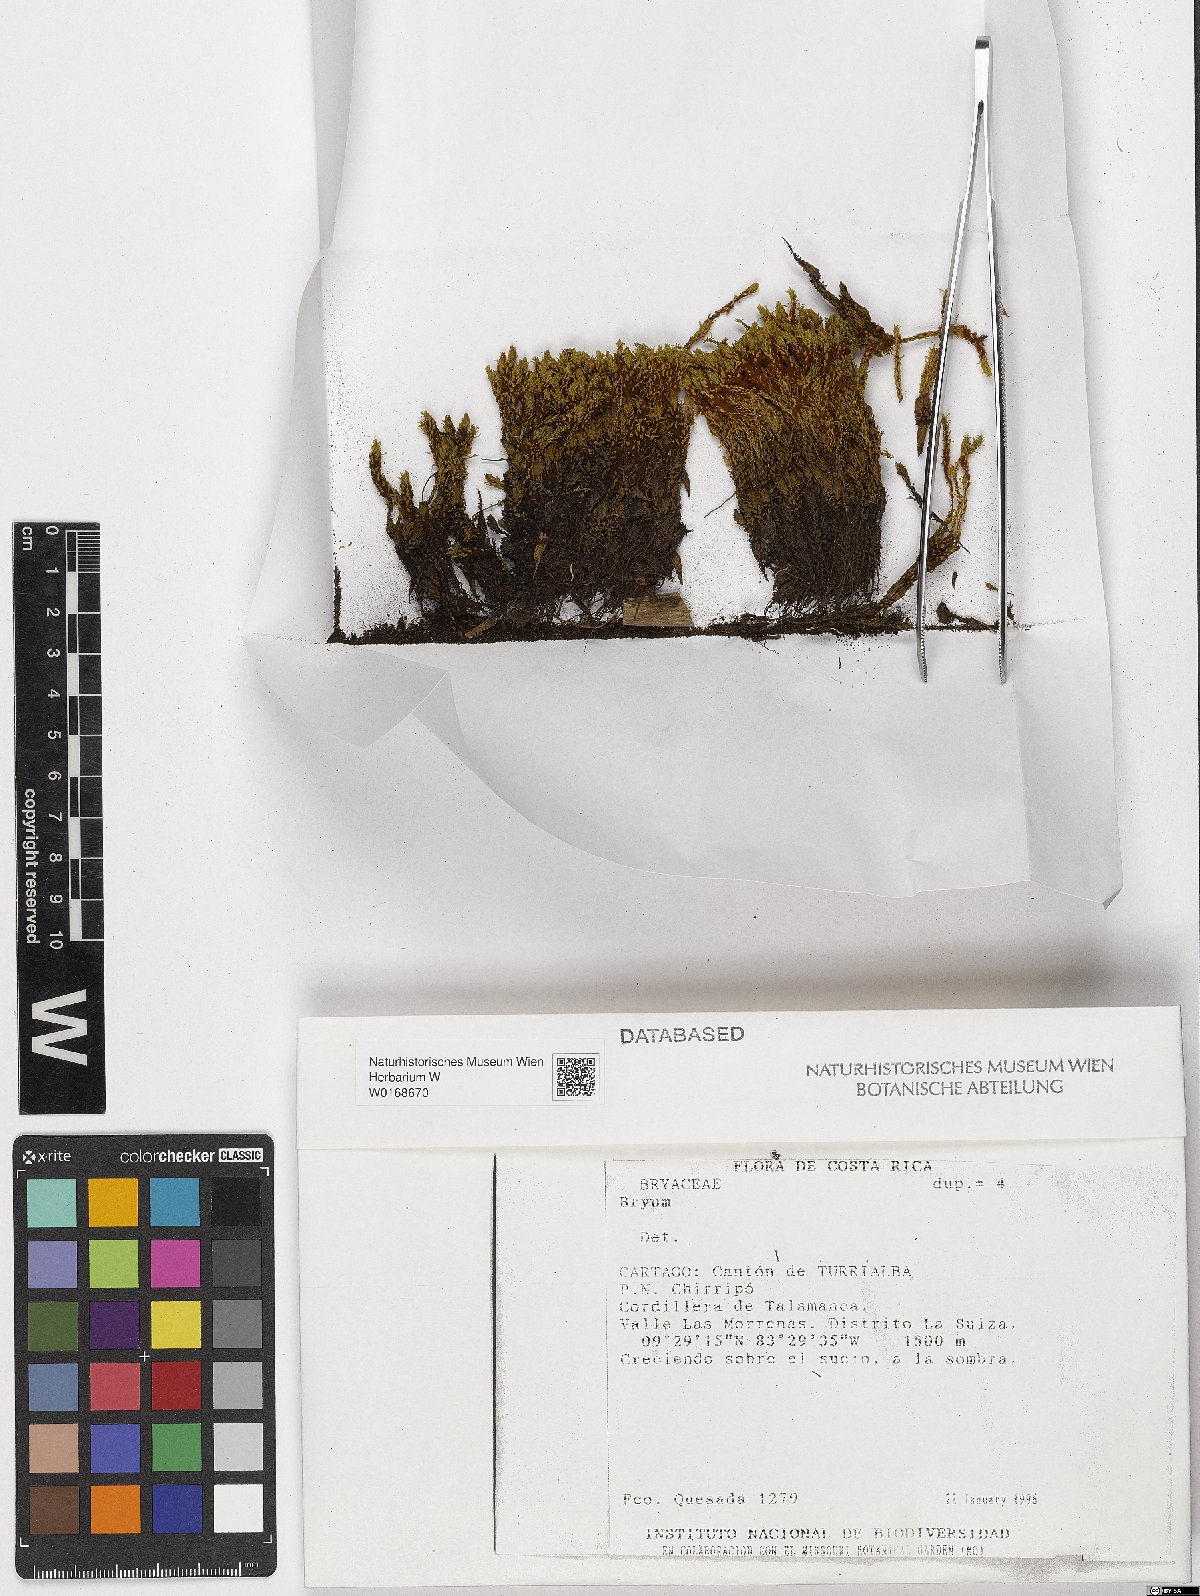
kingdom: Plantae
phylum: Bryophyta
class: Bryopsida
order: Bryales
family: Bryaceae
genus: Bryum
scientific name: Bryum
